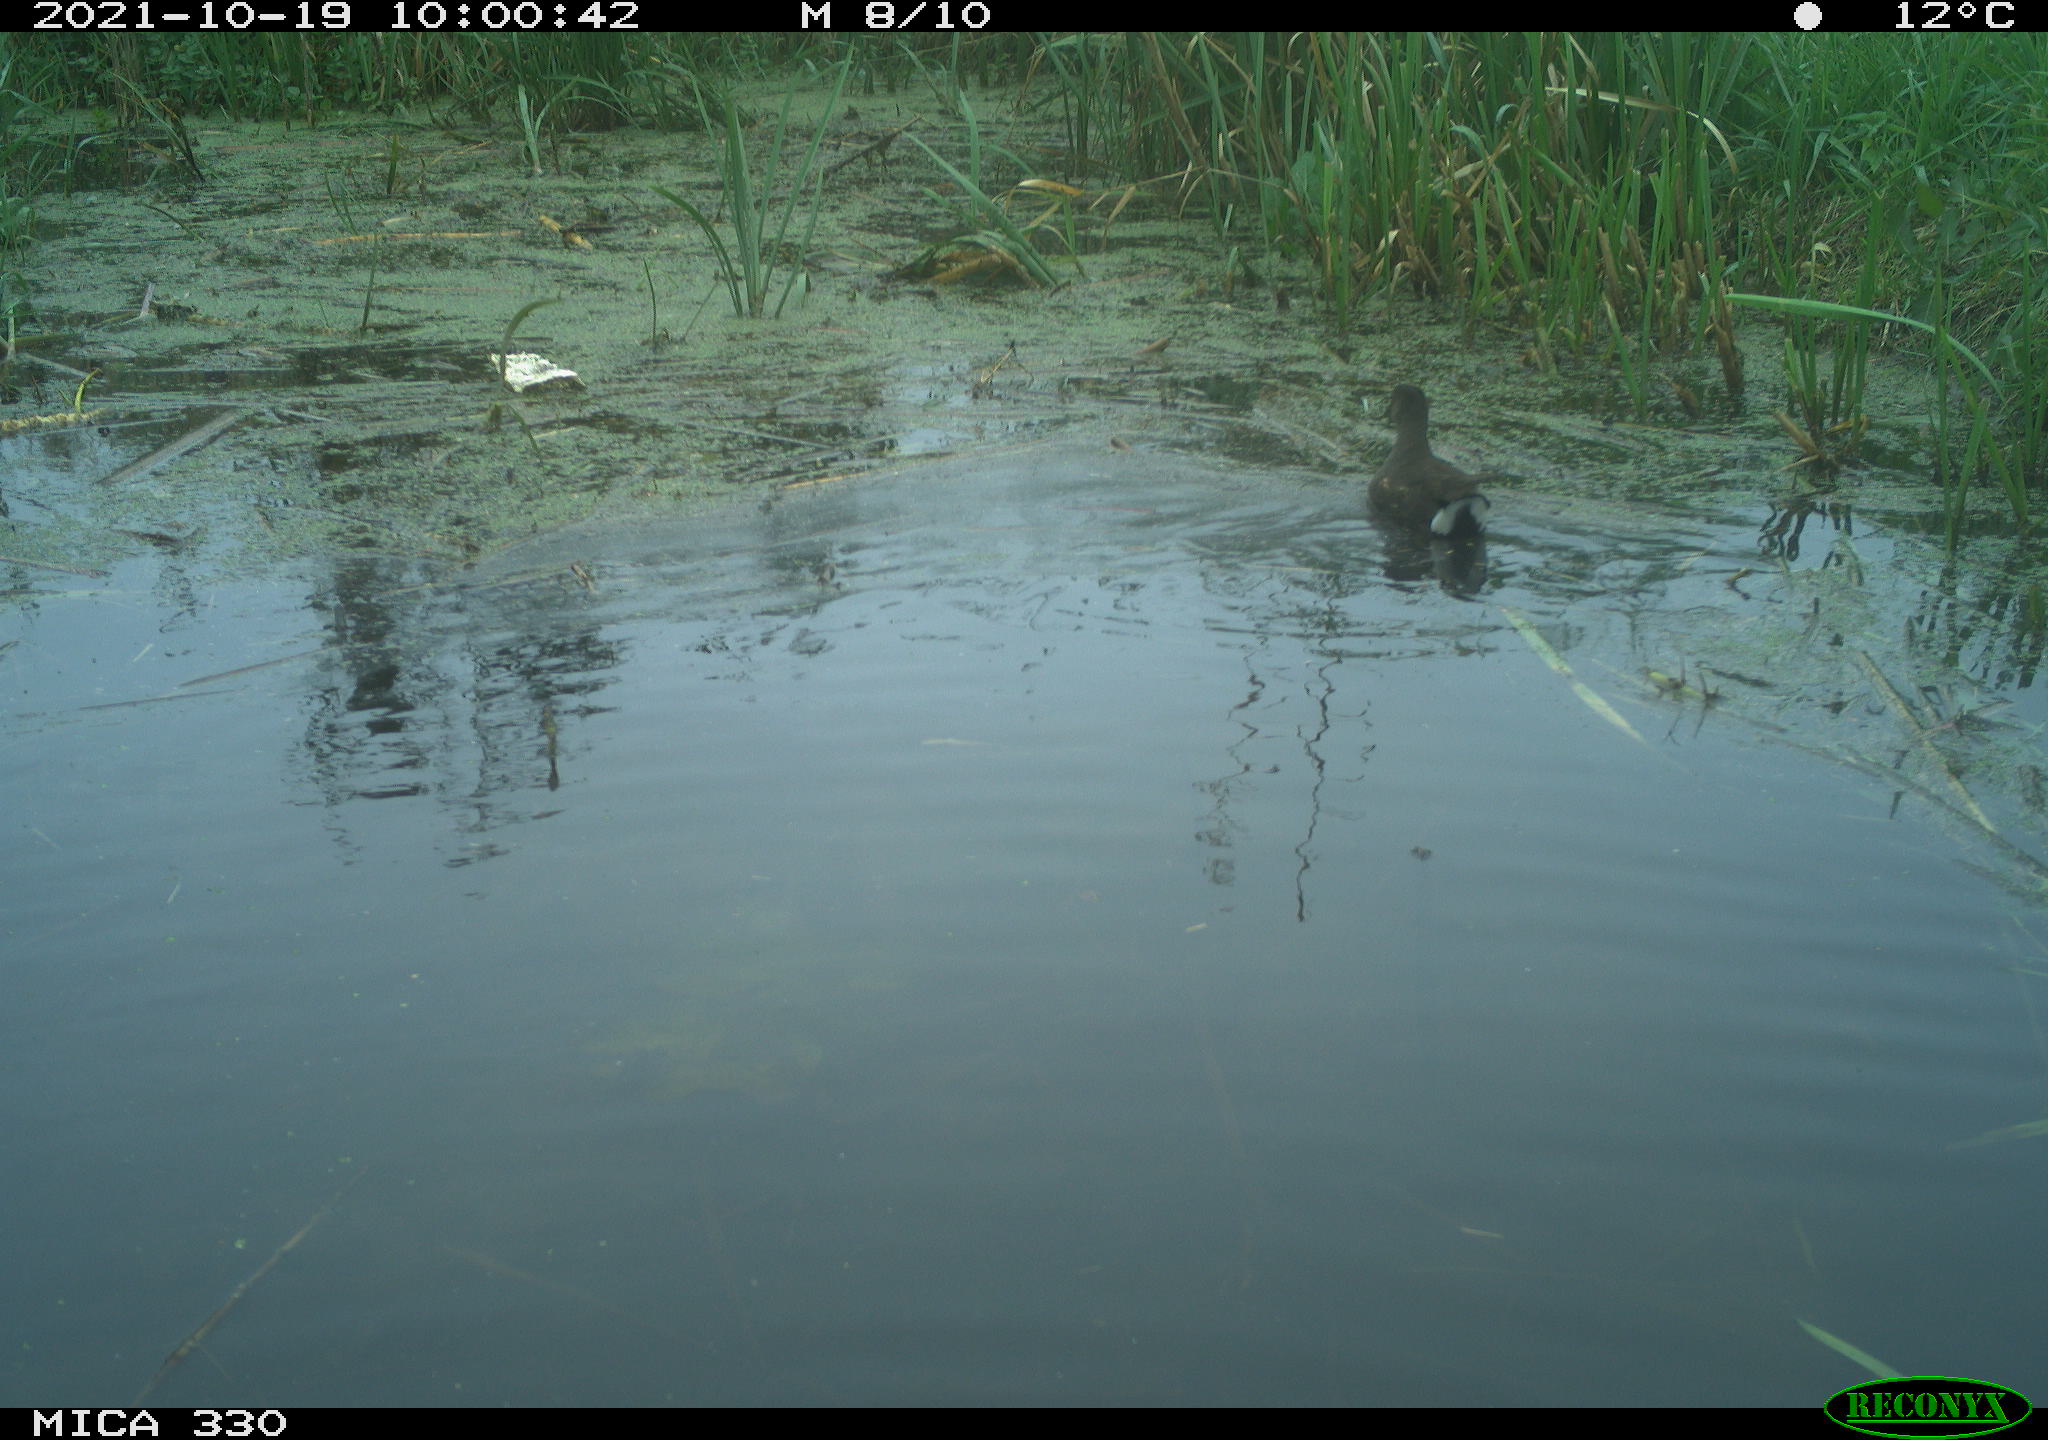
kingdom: Animalia
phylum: Chordata
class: Aves
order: Gruiformes
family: Rallidae
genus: Gallinula
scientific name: Gallinula chloropus
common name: Common moorhen
